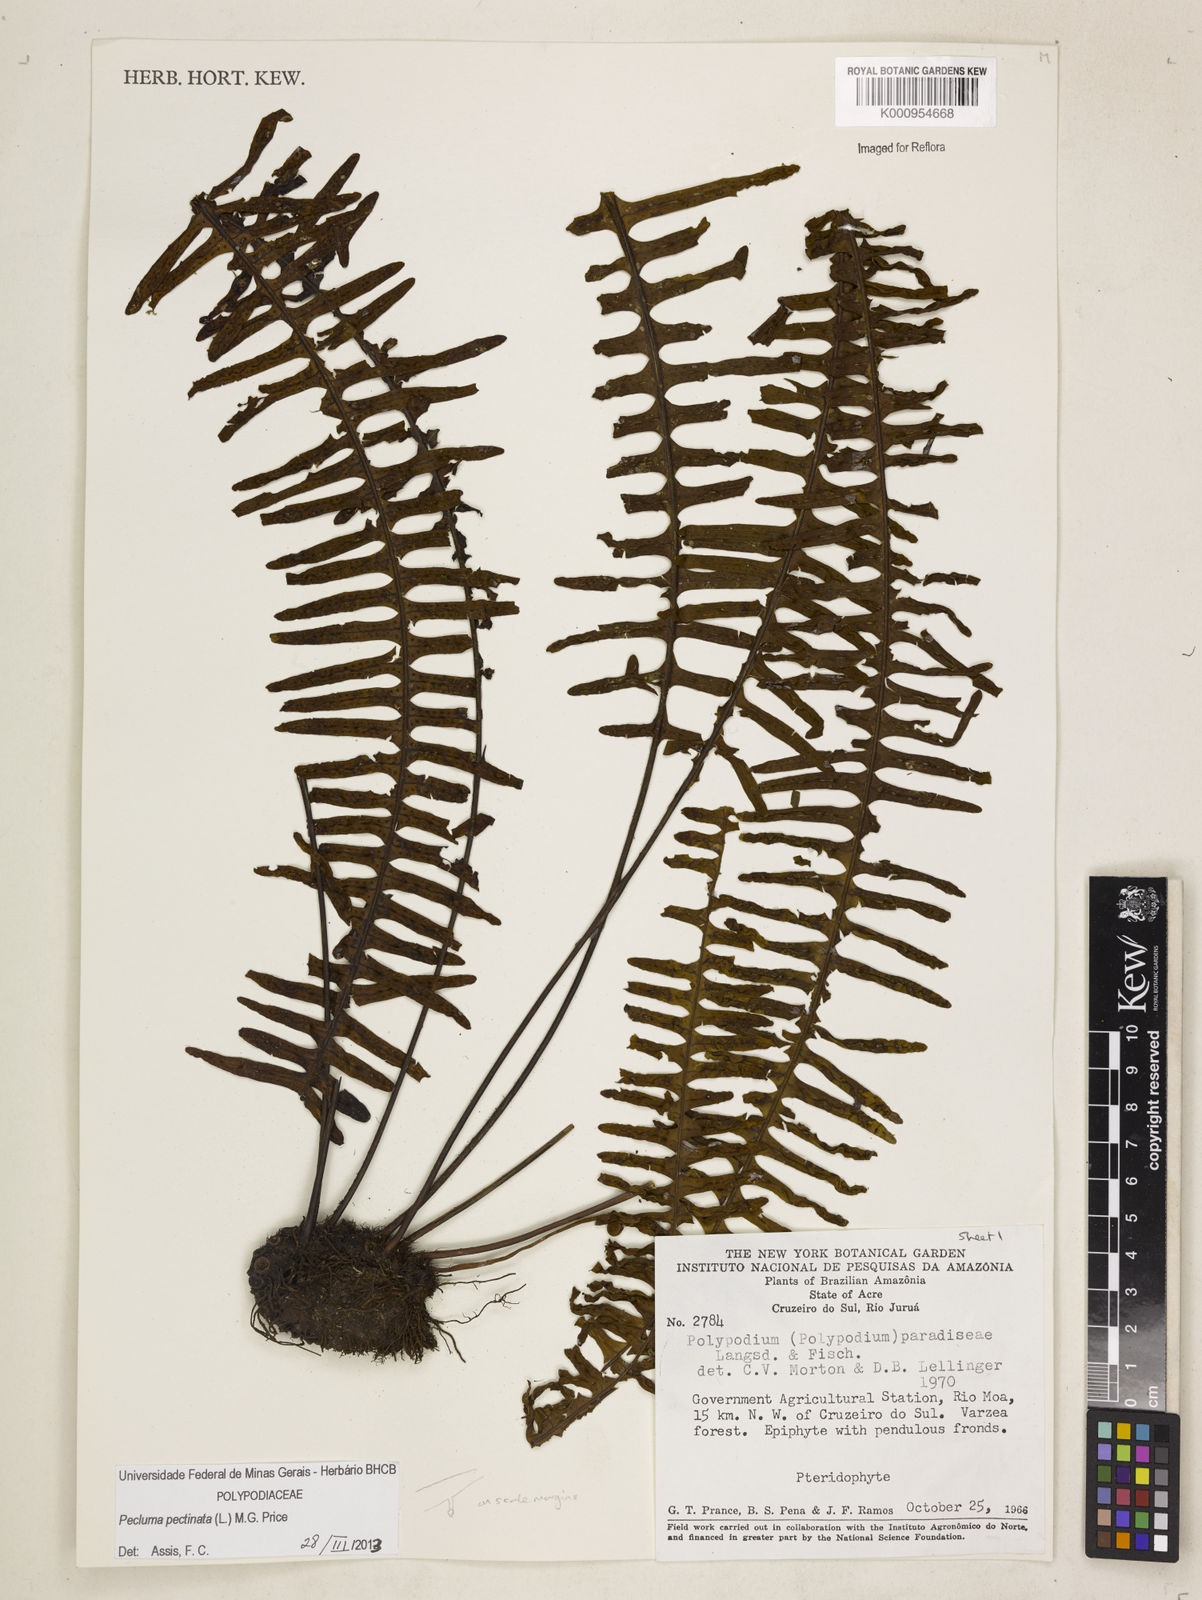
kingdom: Plantae
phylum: Tracheophyta
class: Polypodiopsida
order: Polypodiales
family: Polypodiaceae
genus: Pecluma
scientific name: Pecluma pectinata
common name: Msasa fern
